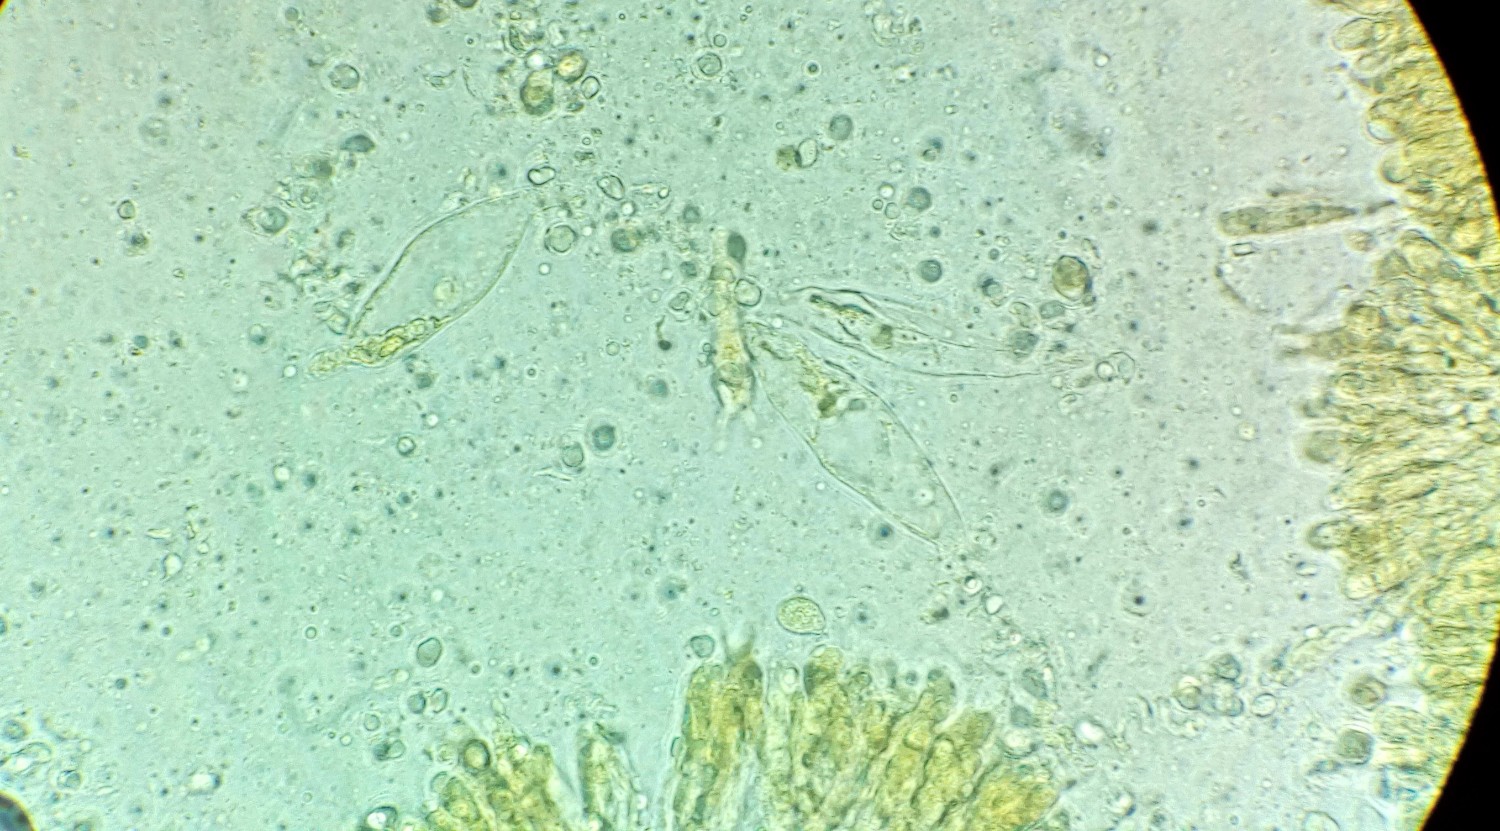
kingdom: Fungi
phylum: Basidiomycota
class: Agaricomycetes
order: Agaricales
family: Porotheleaceae
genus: Phloeomana
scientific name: Phloeomana minutula
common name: bleg huesvamp
